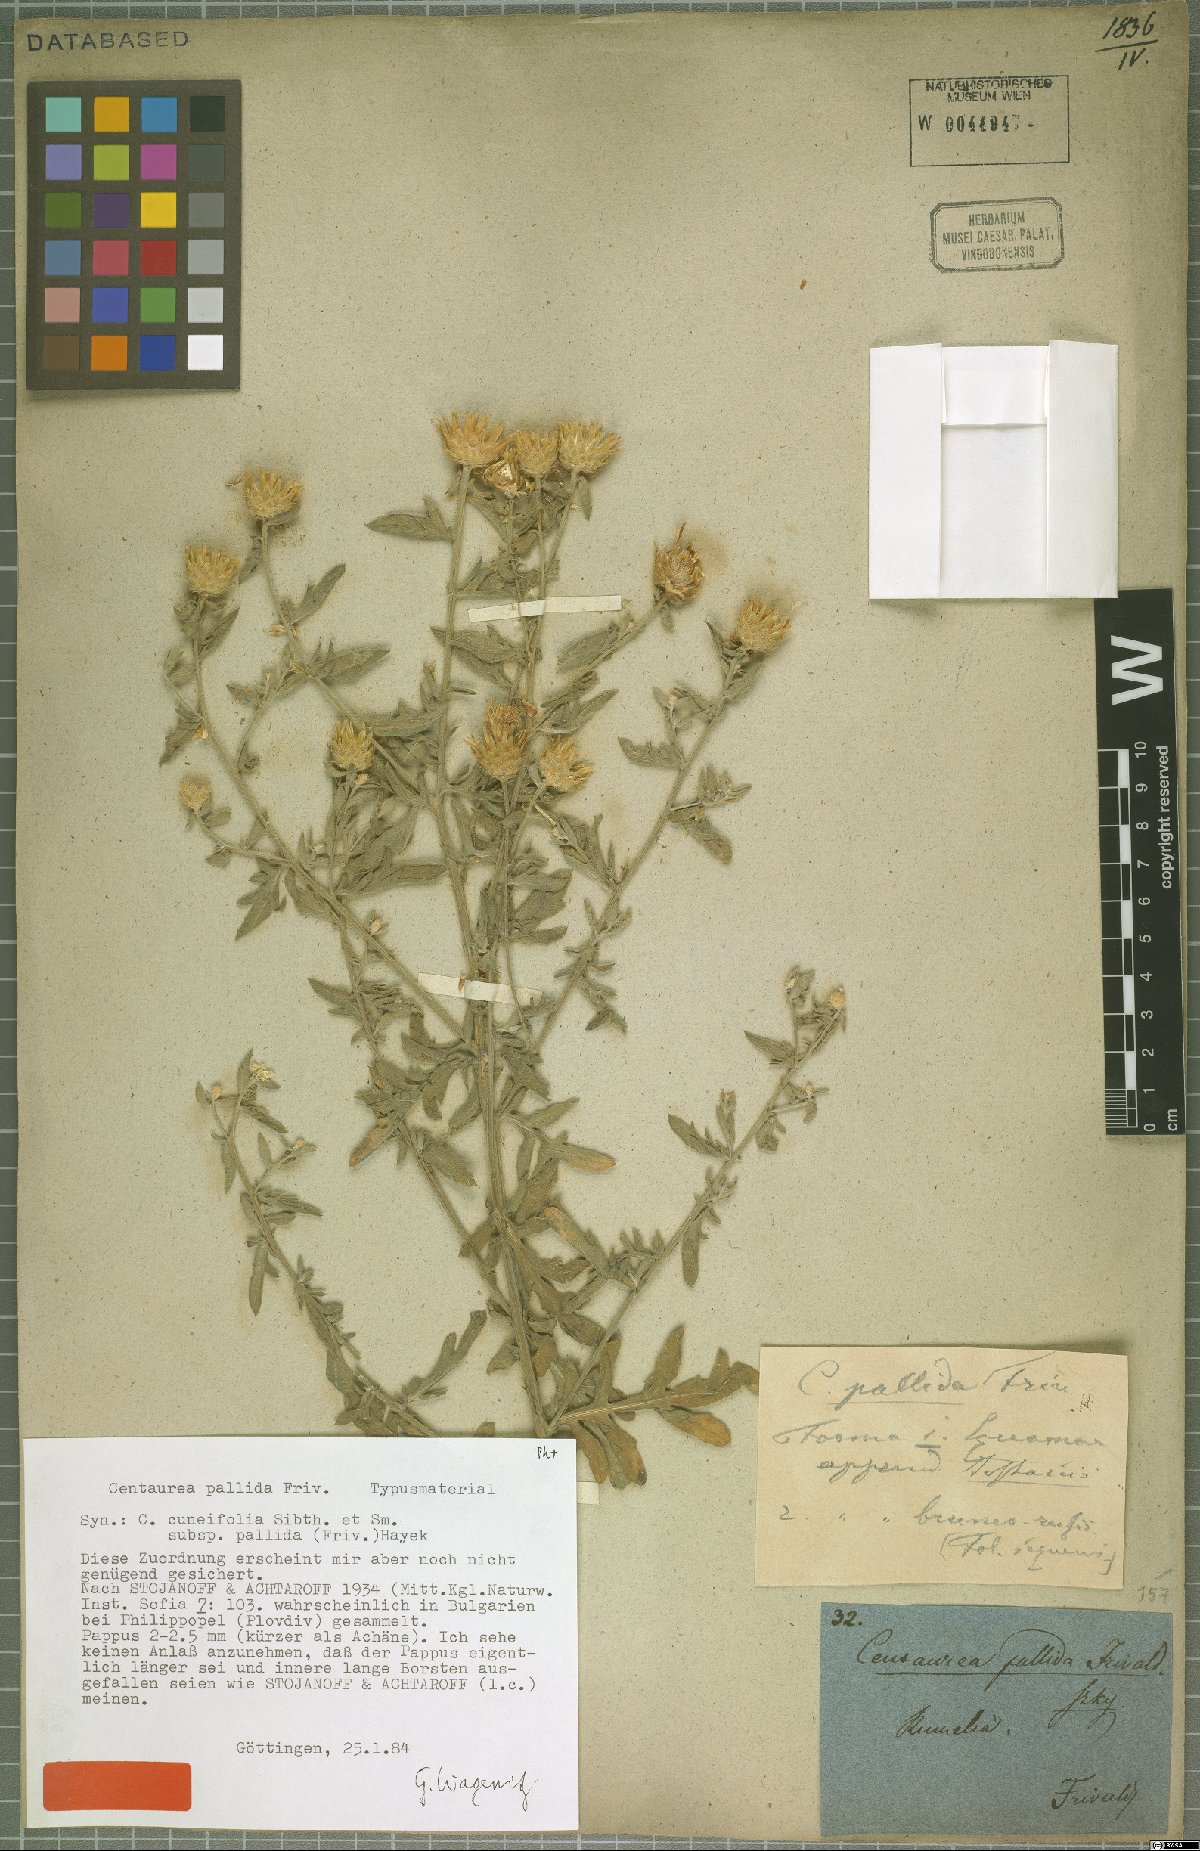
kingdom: Plantae
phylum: Tracheophyta
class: Magnoliopsida
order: Asterales
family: Asteraceae
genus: Centaurea
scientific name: Centaurea cuneifolia
